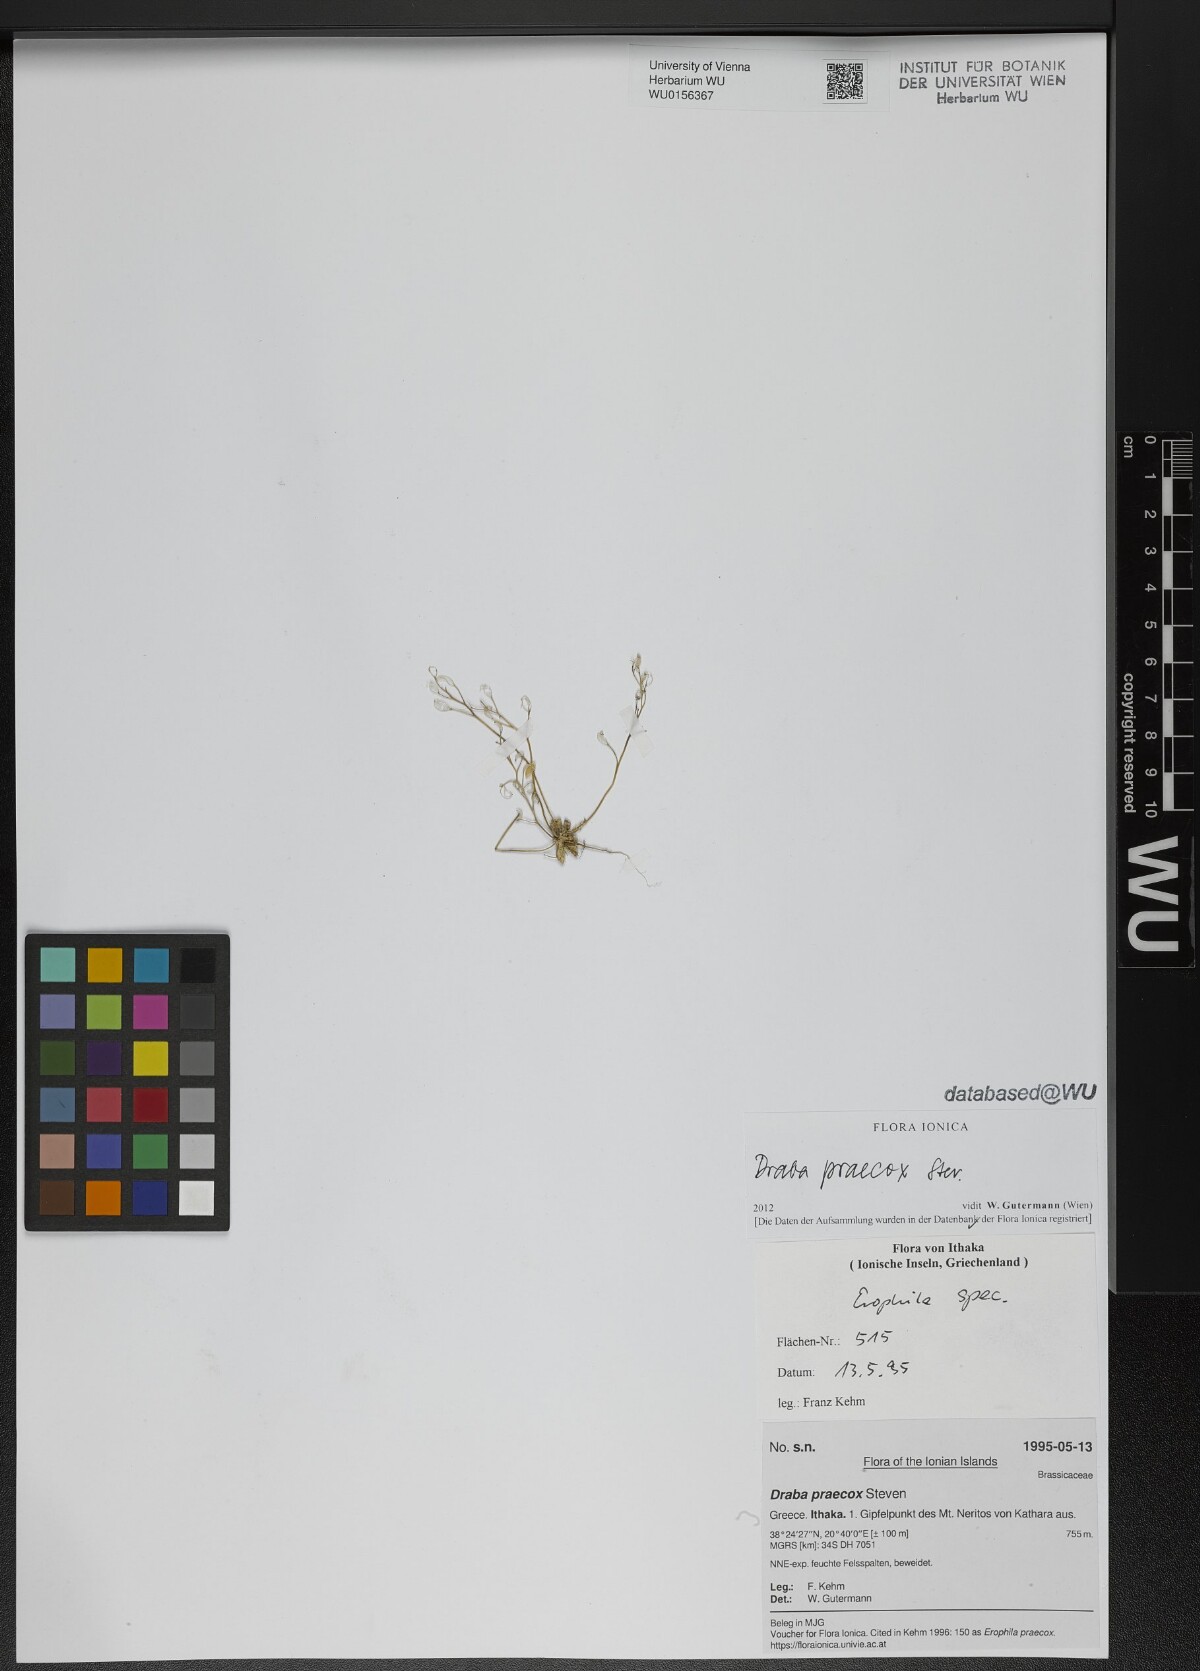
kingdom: Plantae
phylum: Tracheophyta
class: Magnoliopsida
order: Brassicales
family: Brassicaceae
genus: Draba
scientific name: Draba verna
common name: Spring draba
